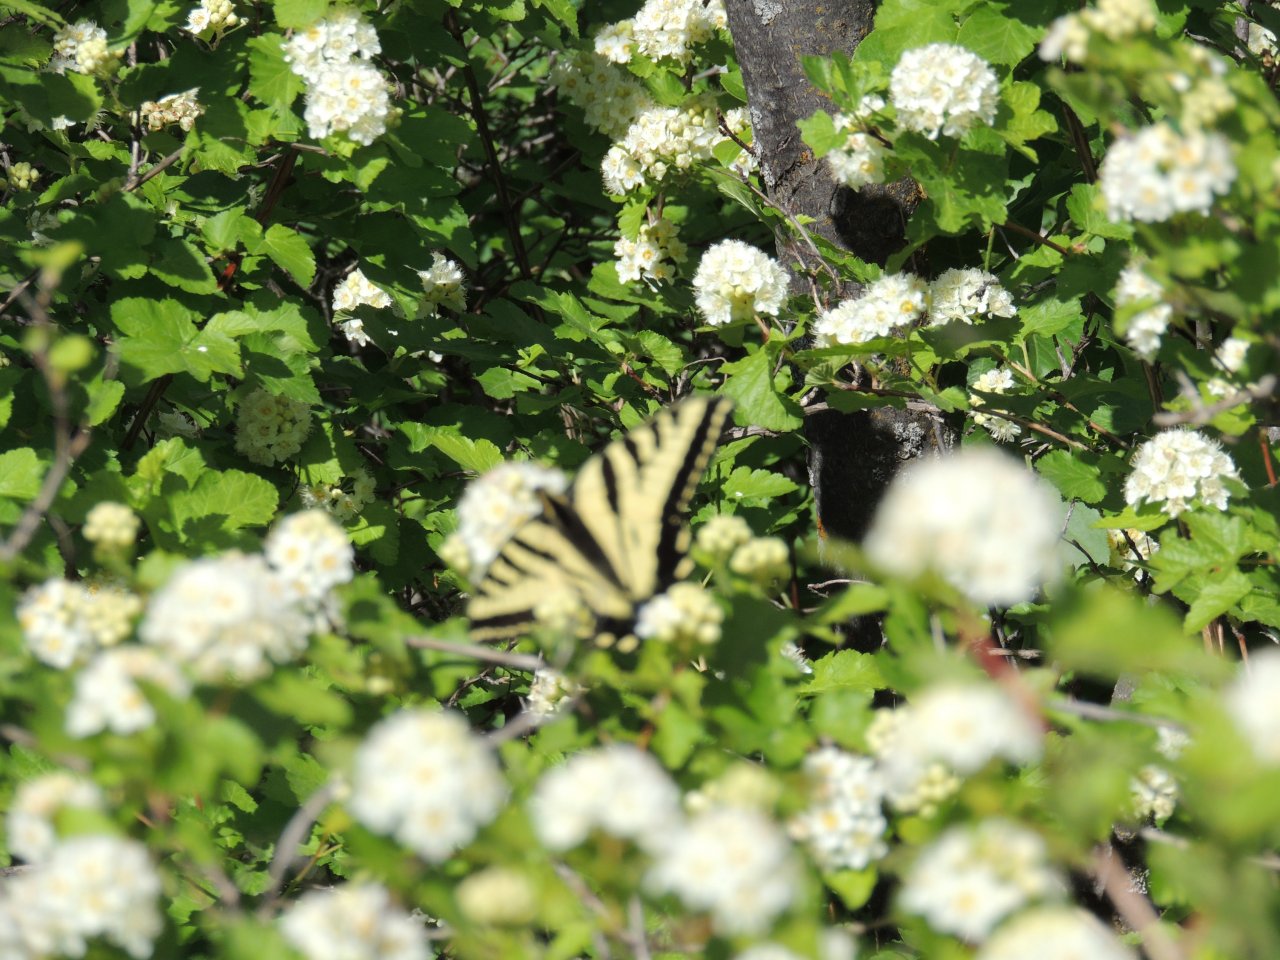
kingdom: Animalia
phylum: Arthropoda
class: Insecta
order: Lepidoptera
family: Papilionidae
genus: Pterourus
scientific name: Pterourus rutulus
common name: Western Tiger Swallowtail
